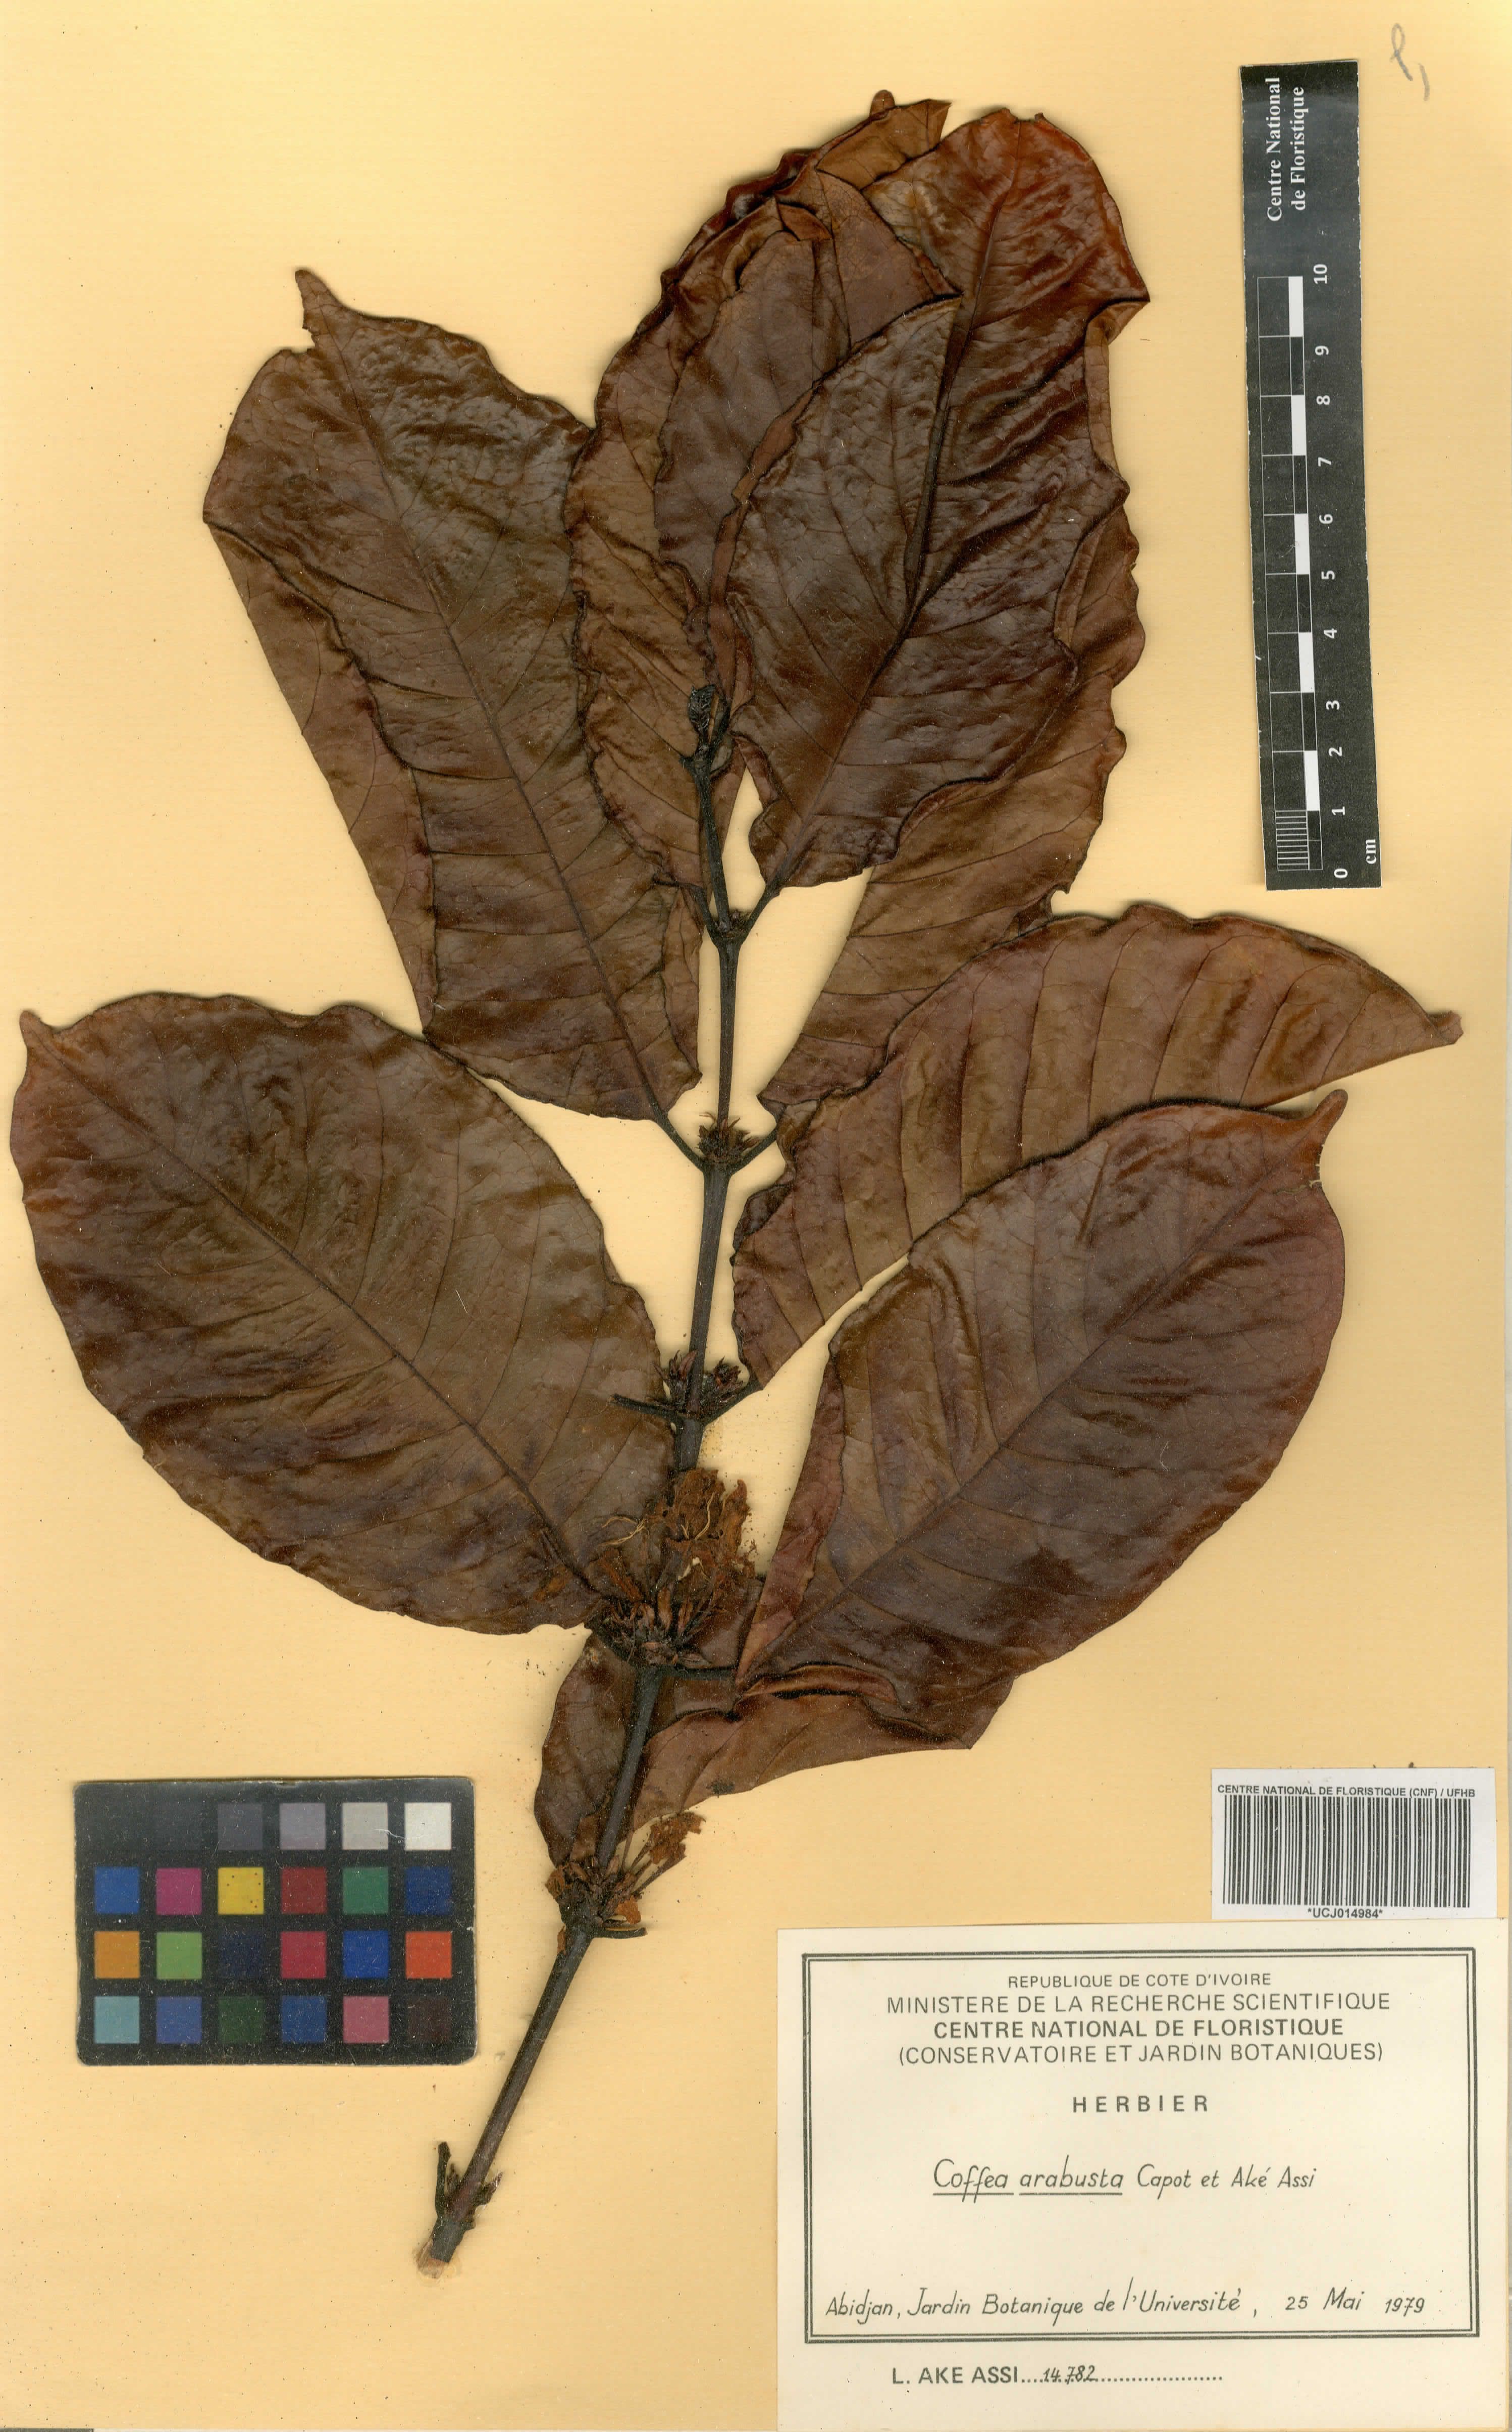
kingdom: Plantae
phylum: Tracheophyta
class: Magnoliopsida
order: Gentianales
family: Rubiaceae
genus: Coffea
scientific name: Coffea arabusta
